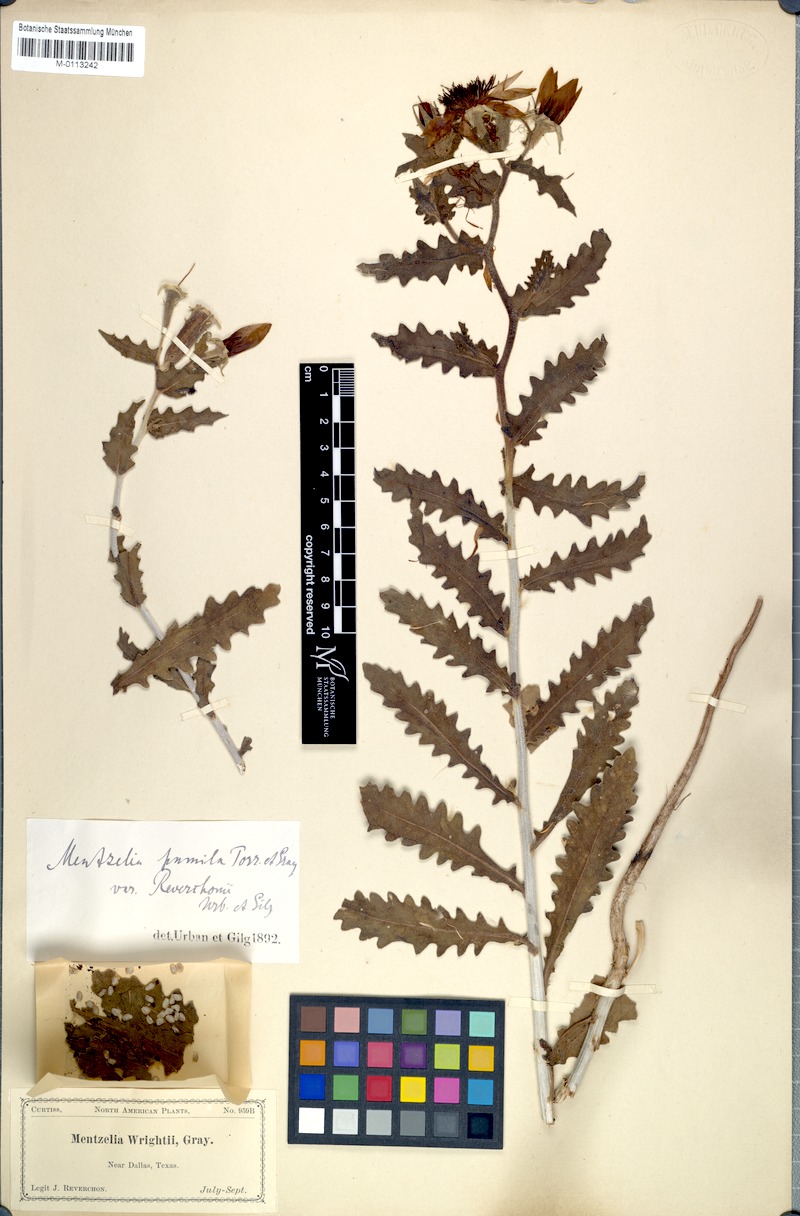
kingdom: Plantae
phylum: Tracheophyta
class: Magnoliopsida
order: Cornales
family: Loasaceae
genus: Mentzelia
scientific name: Mentzelia reverchonii
